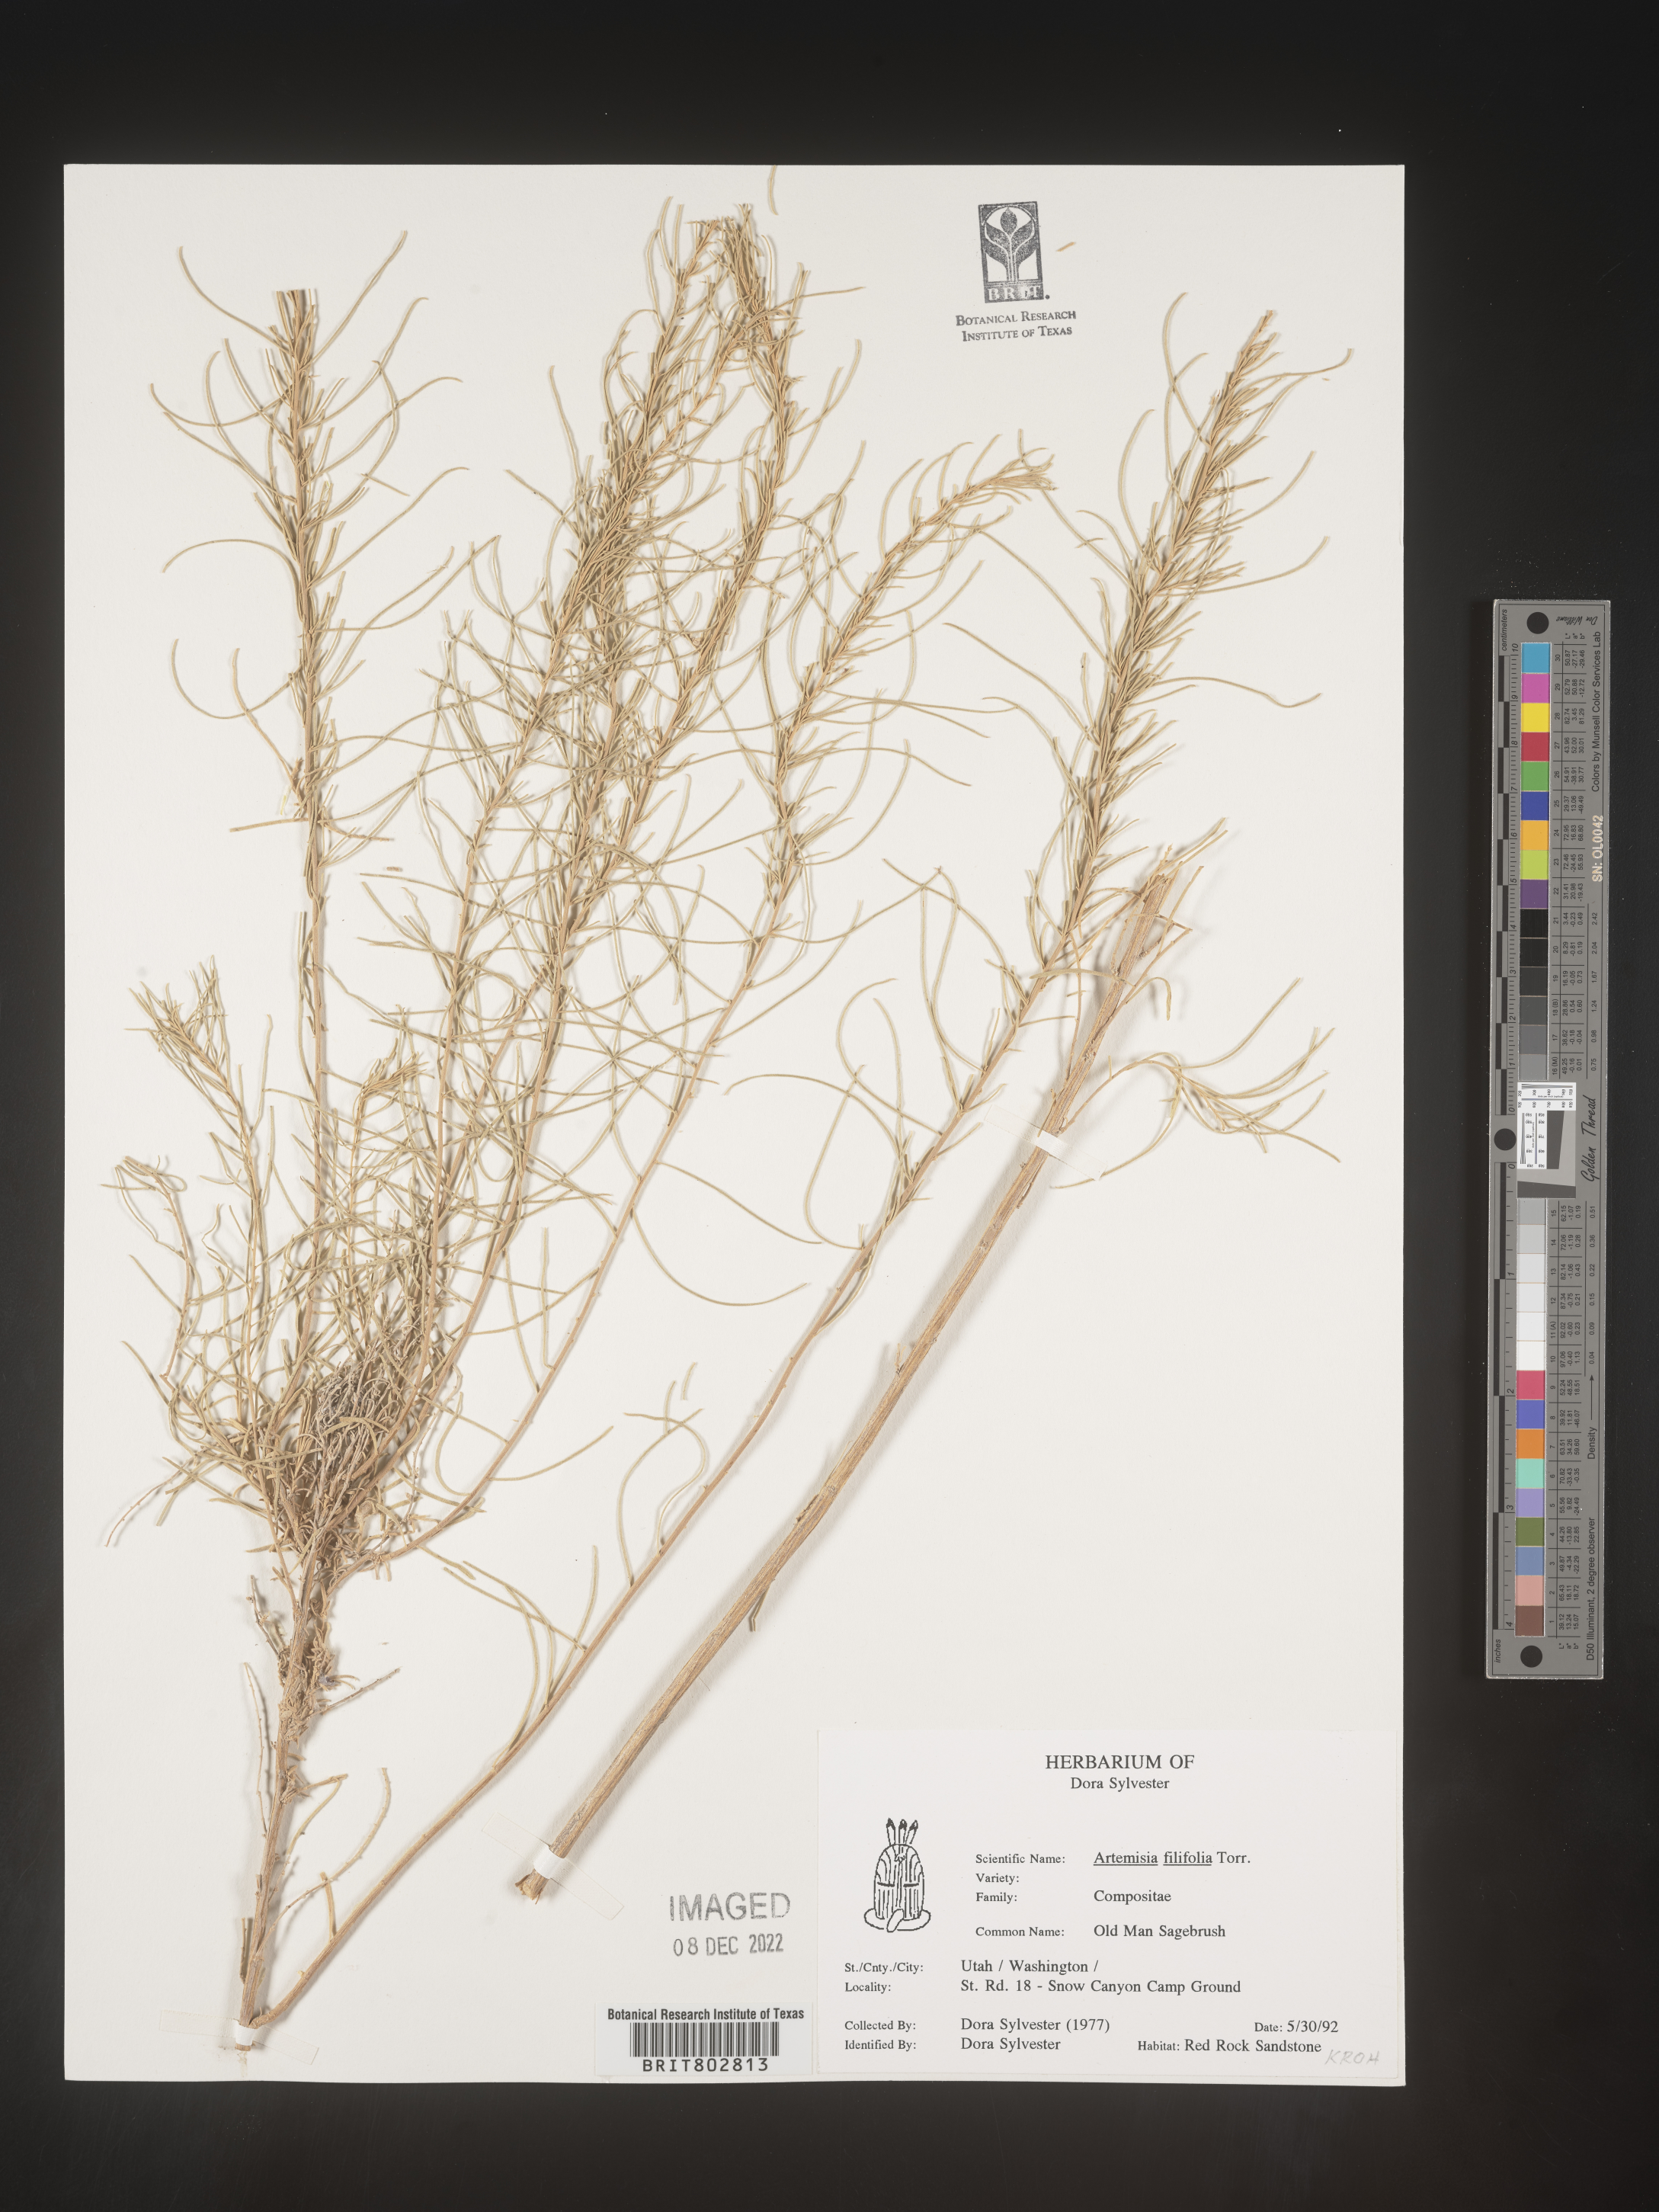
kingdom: Plantae
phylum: Tracheophyta
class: Magnoliopsida
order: Asterales
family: Asteraceae
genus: Artemisia
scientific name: Artemisia filifolia
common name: Sand-sage
